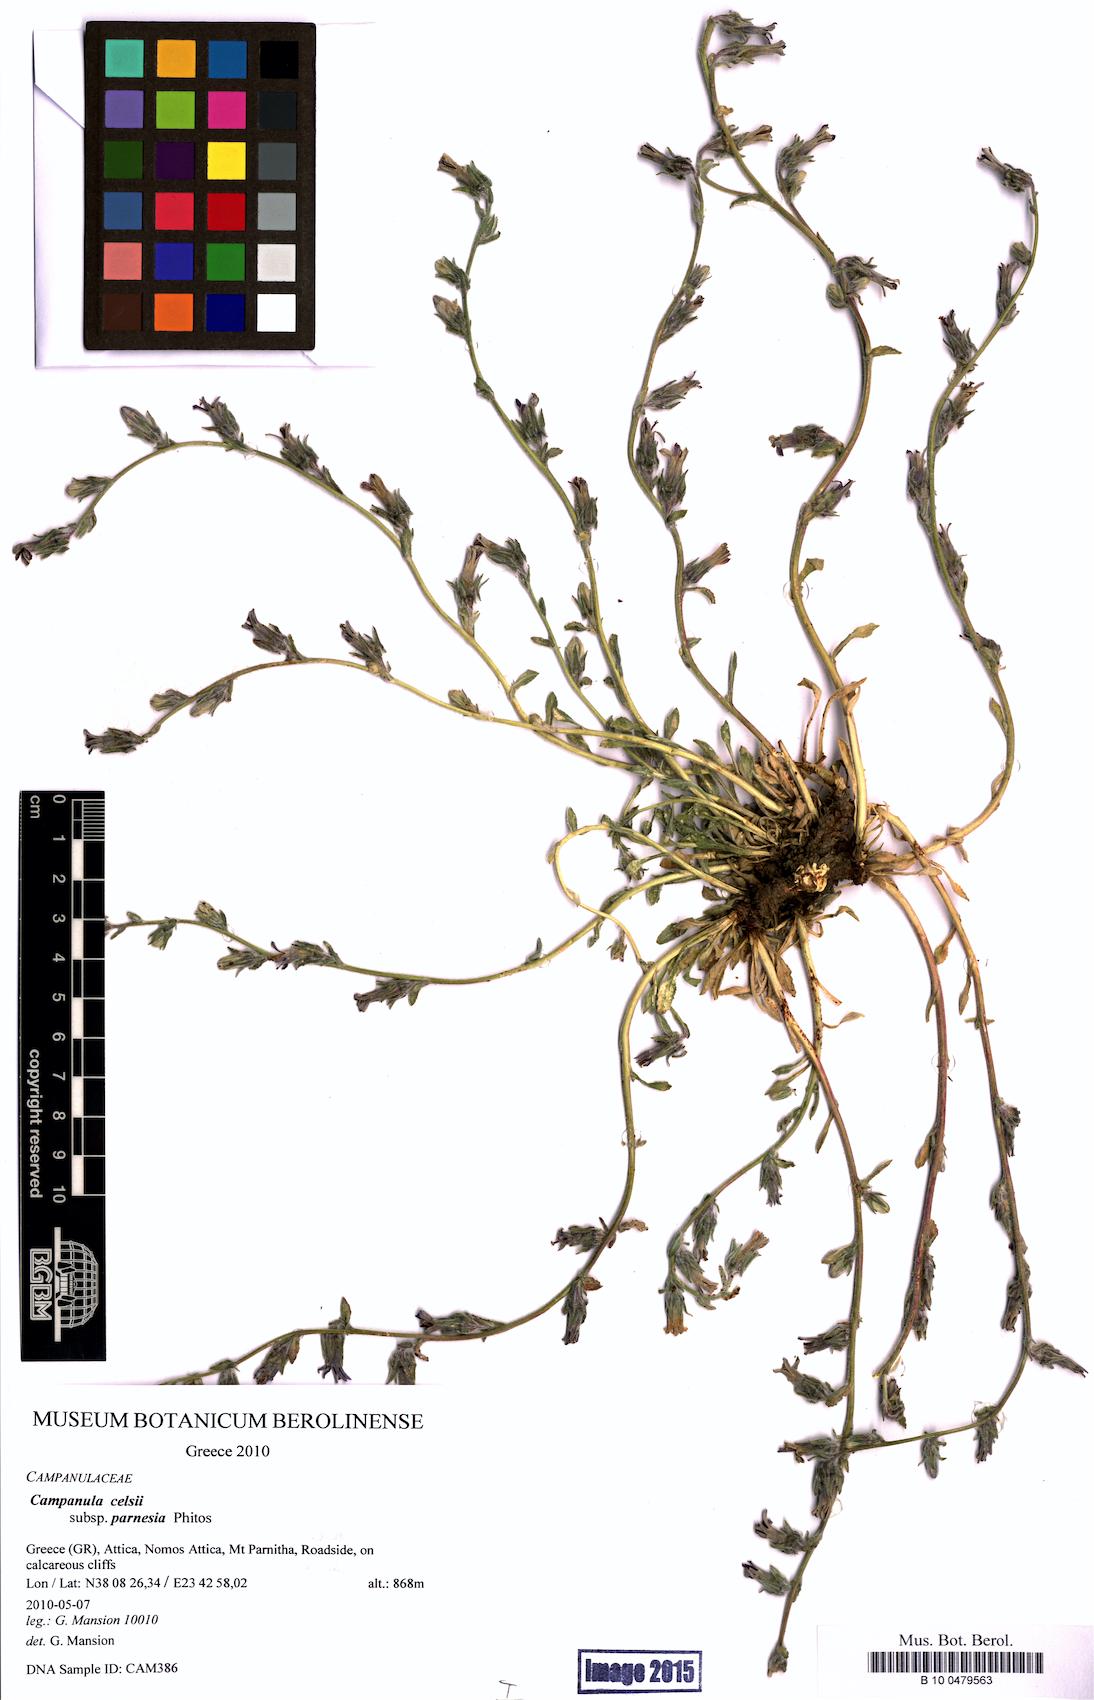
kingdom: Plantae
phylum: Tracheophyta
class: Magnoliopsida
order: Asterales
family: Campanulaceae
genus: Campanula
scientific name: Campanula celsii
